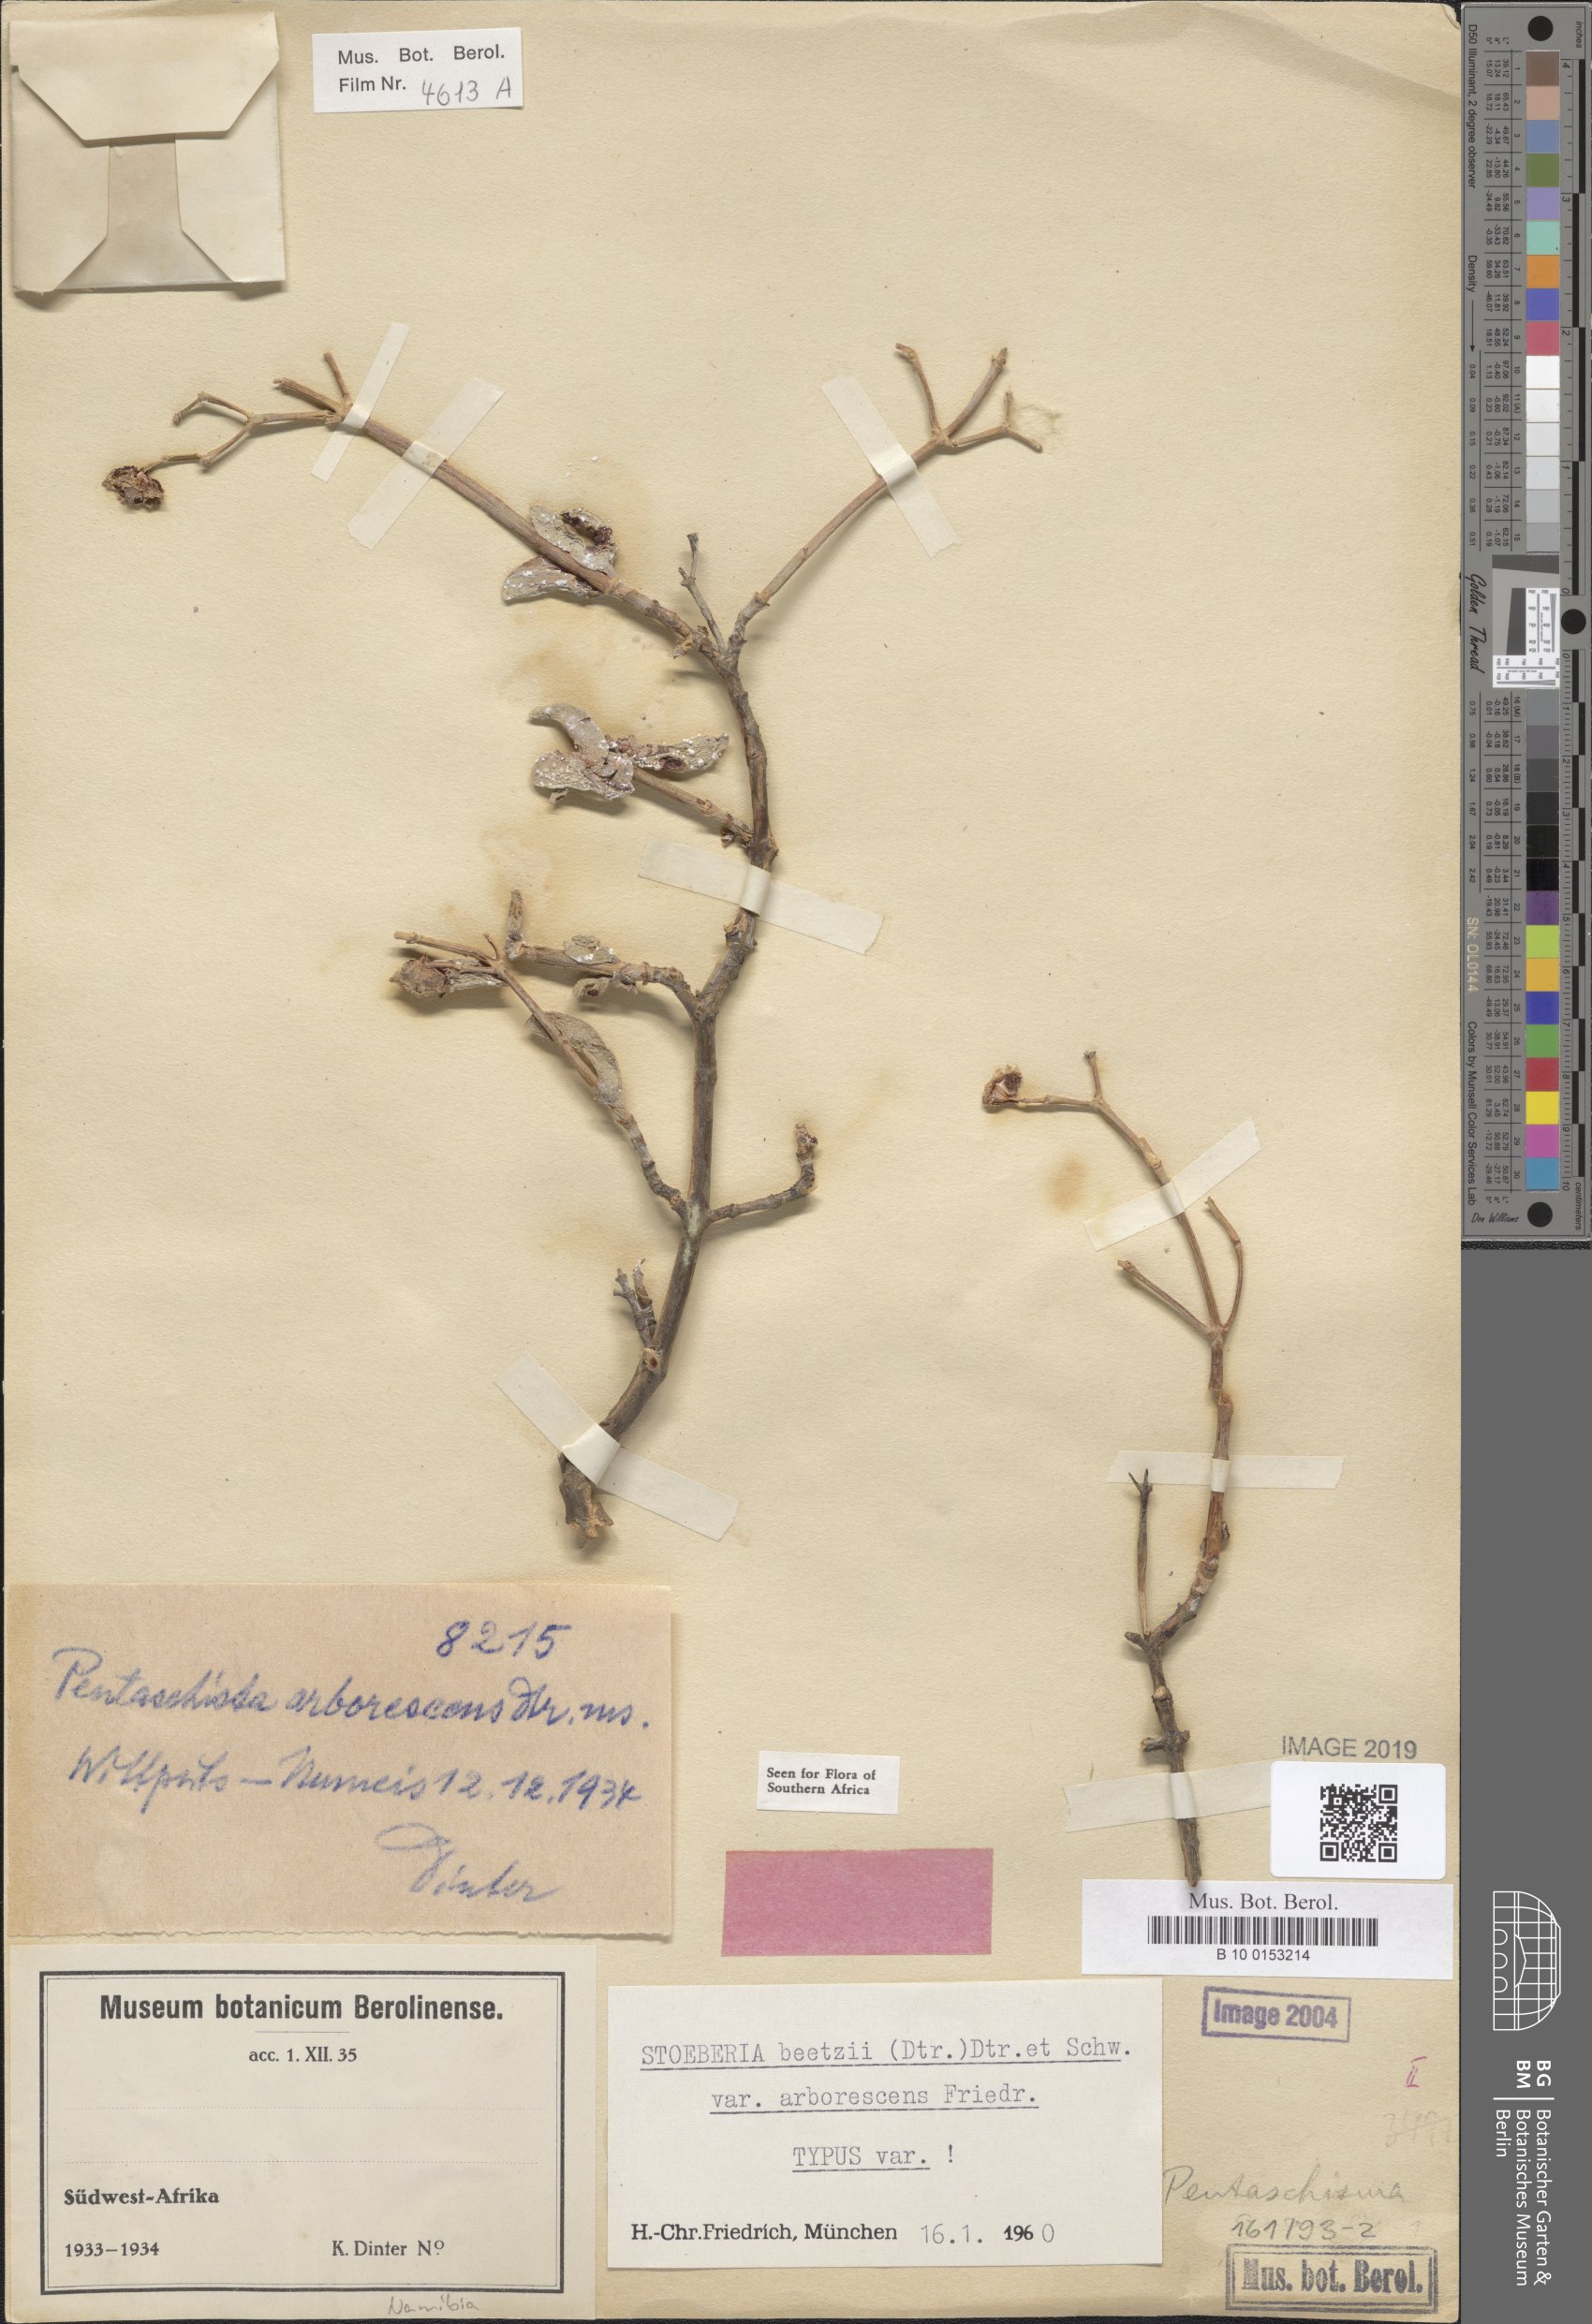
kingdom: Plantae
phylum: Tracheophyta
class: Magnoliopsida
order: Caryophyllales
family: Aizoaceae
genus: Stoeberia
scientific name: Stoeberia frutescens
